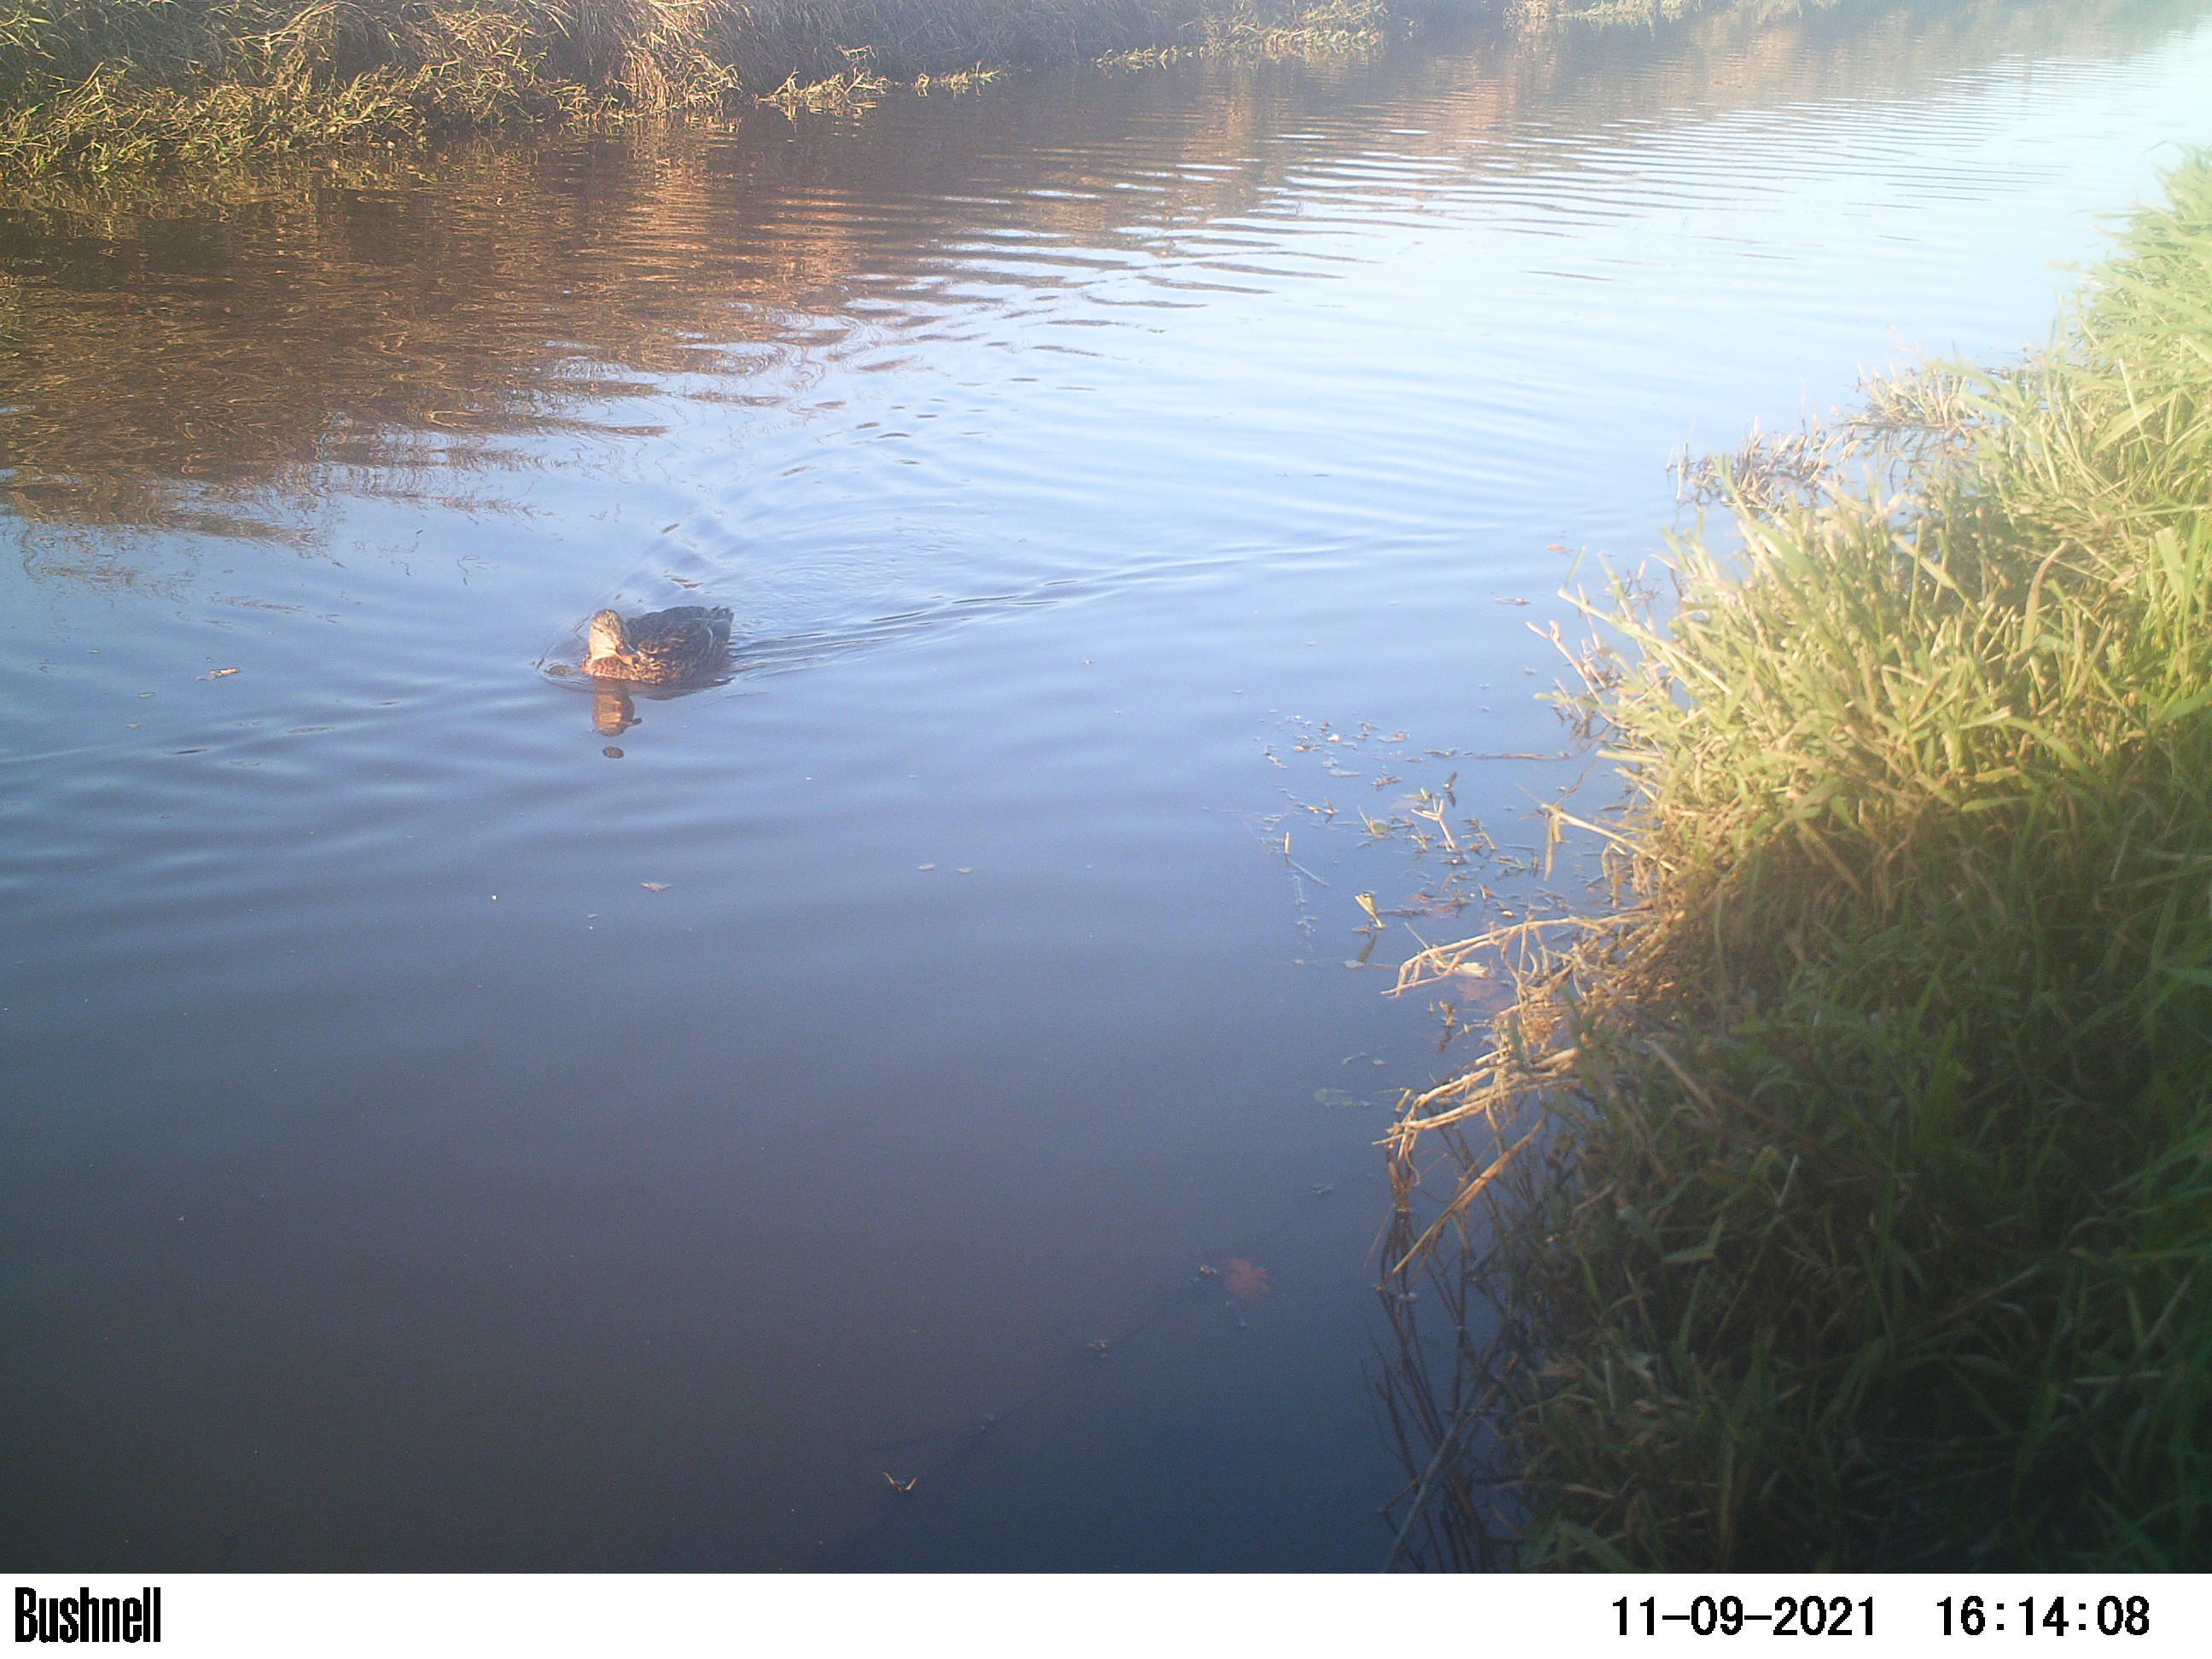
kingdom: Animalia
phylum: Chordata
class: Aves
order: Anseriformes
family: Anatidae
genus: Anas
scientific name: Anas
